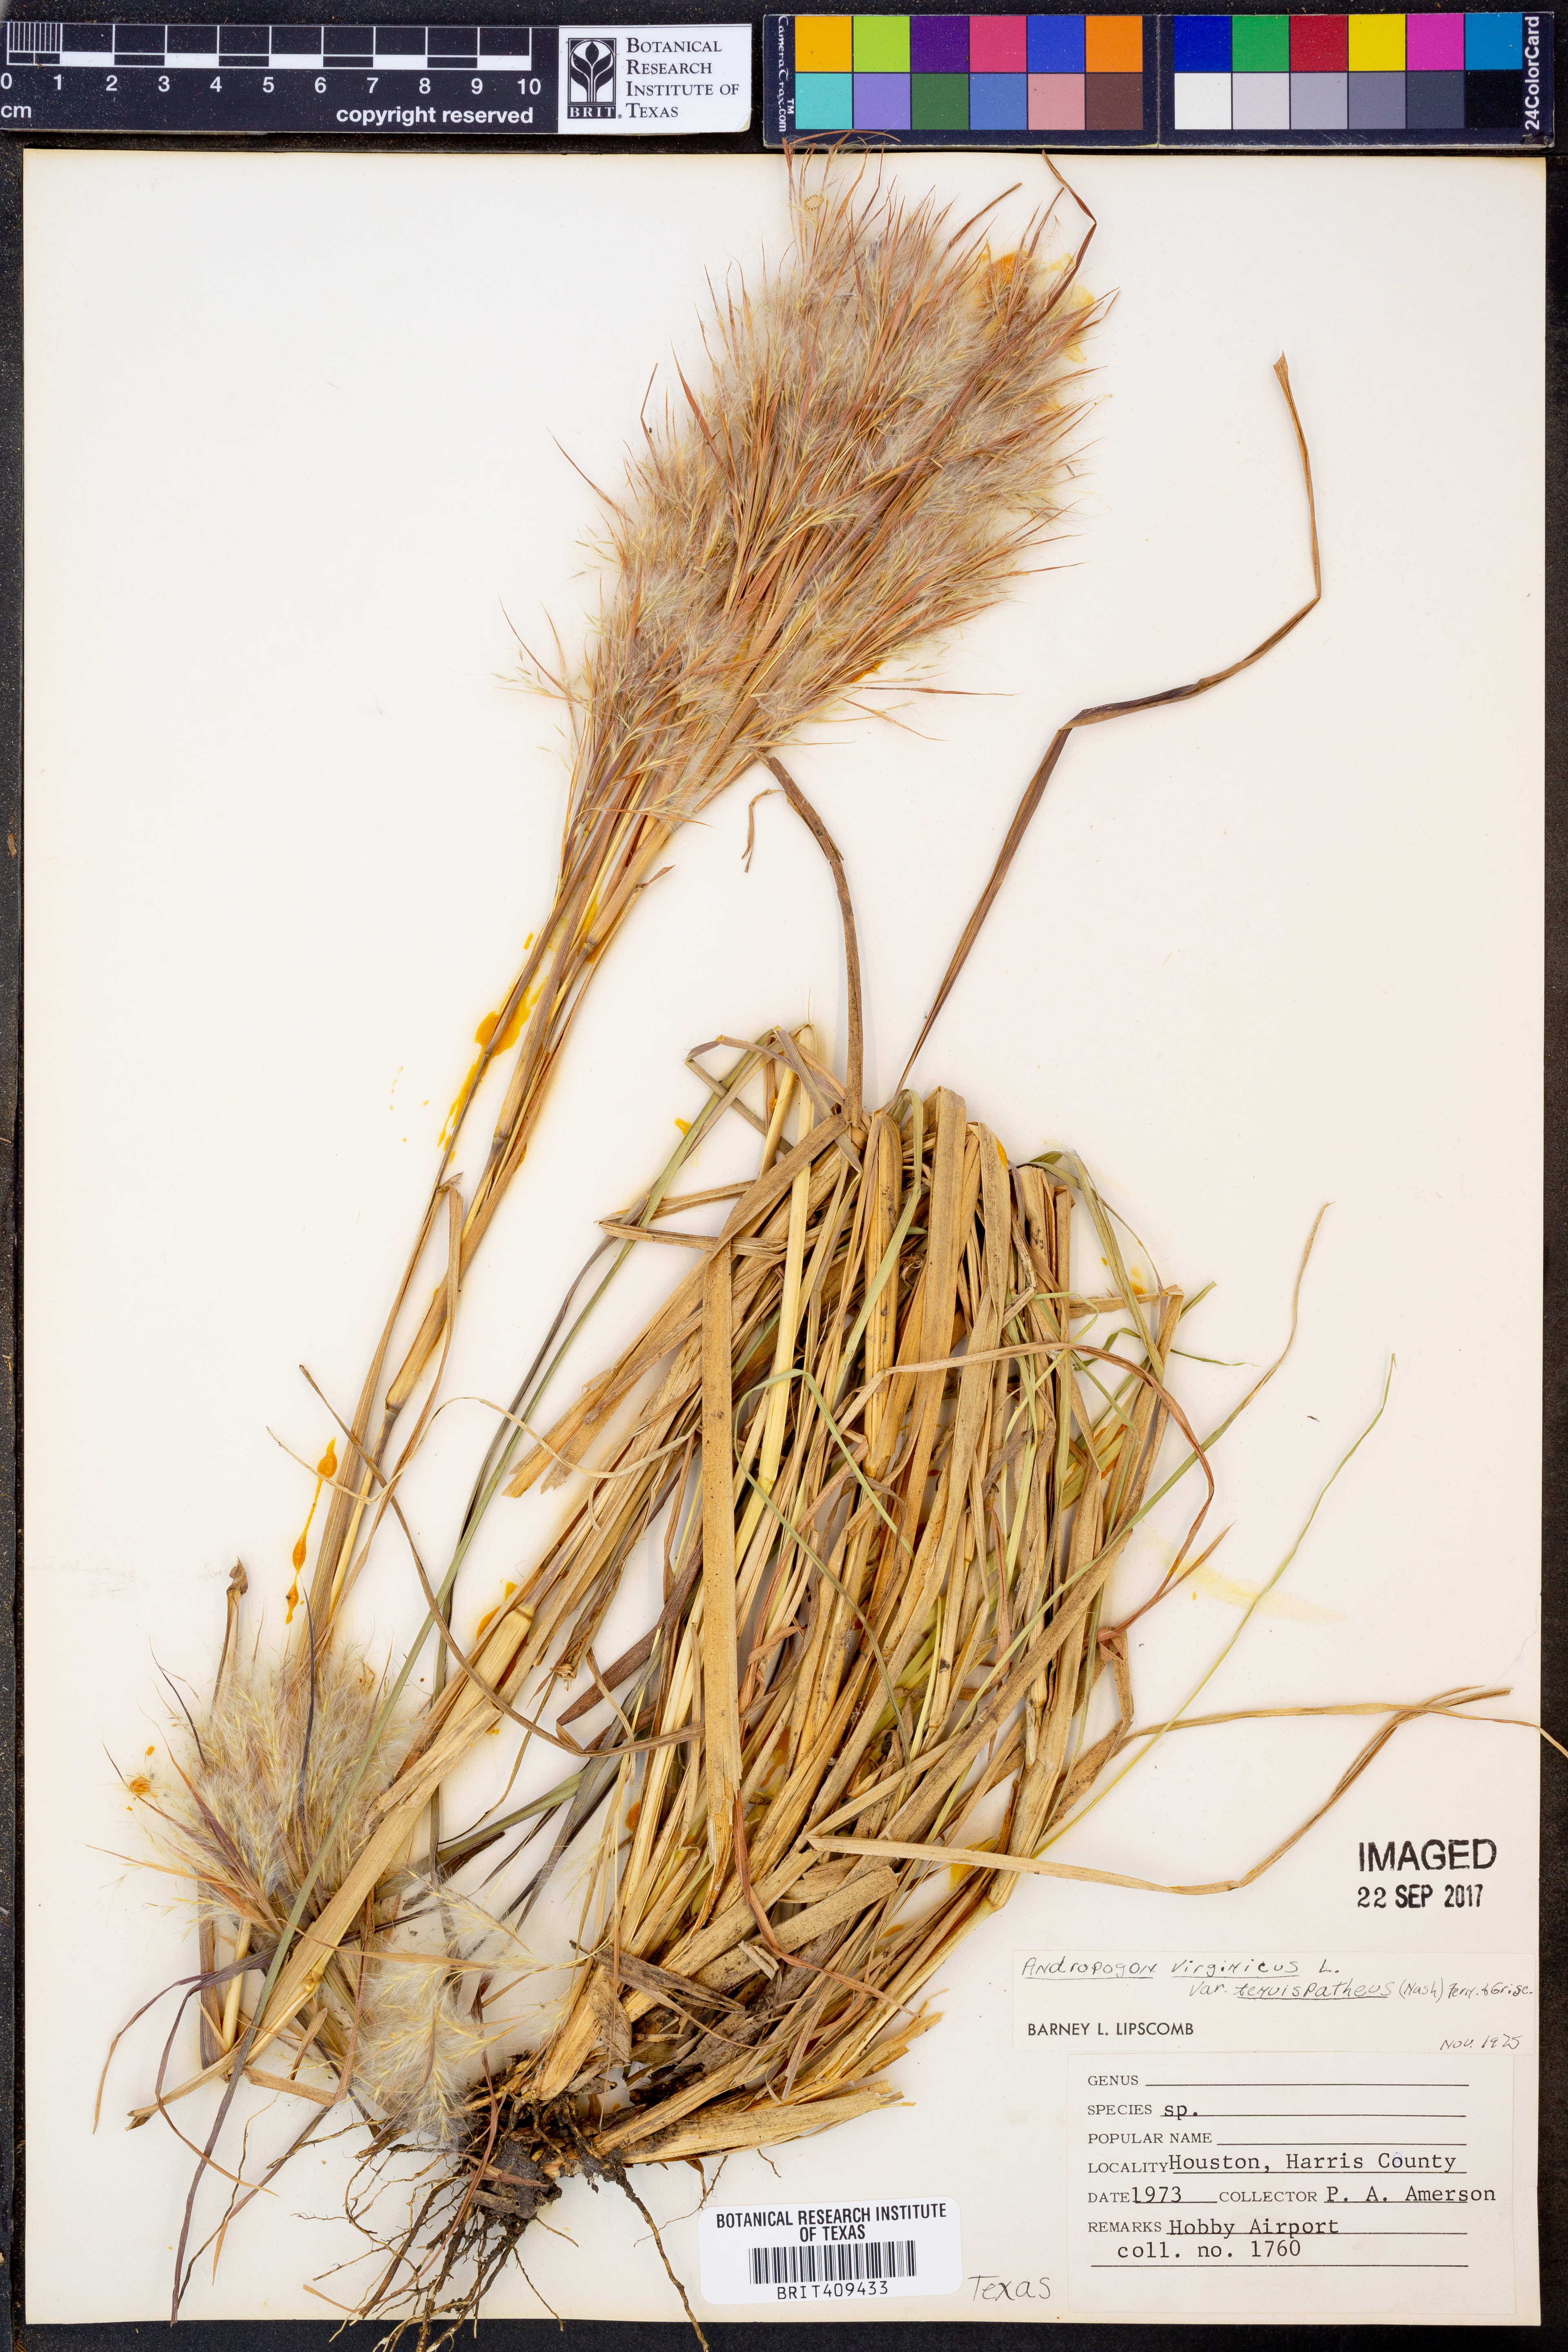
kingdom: Plantae
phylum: Tracheophyta
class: Liliopsida
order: Poales
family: Poaceae
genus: Andropogon
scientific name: Andropogon tenuispatheus
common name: Bushy bluestem
